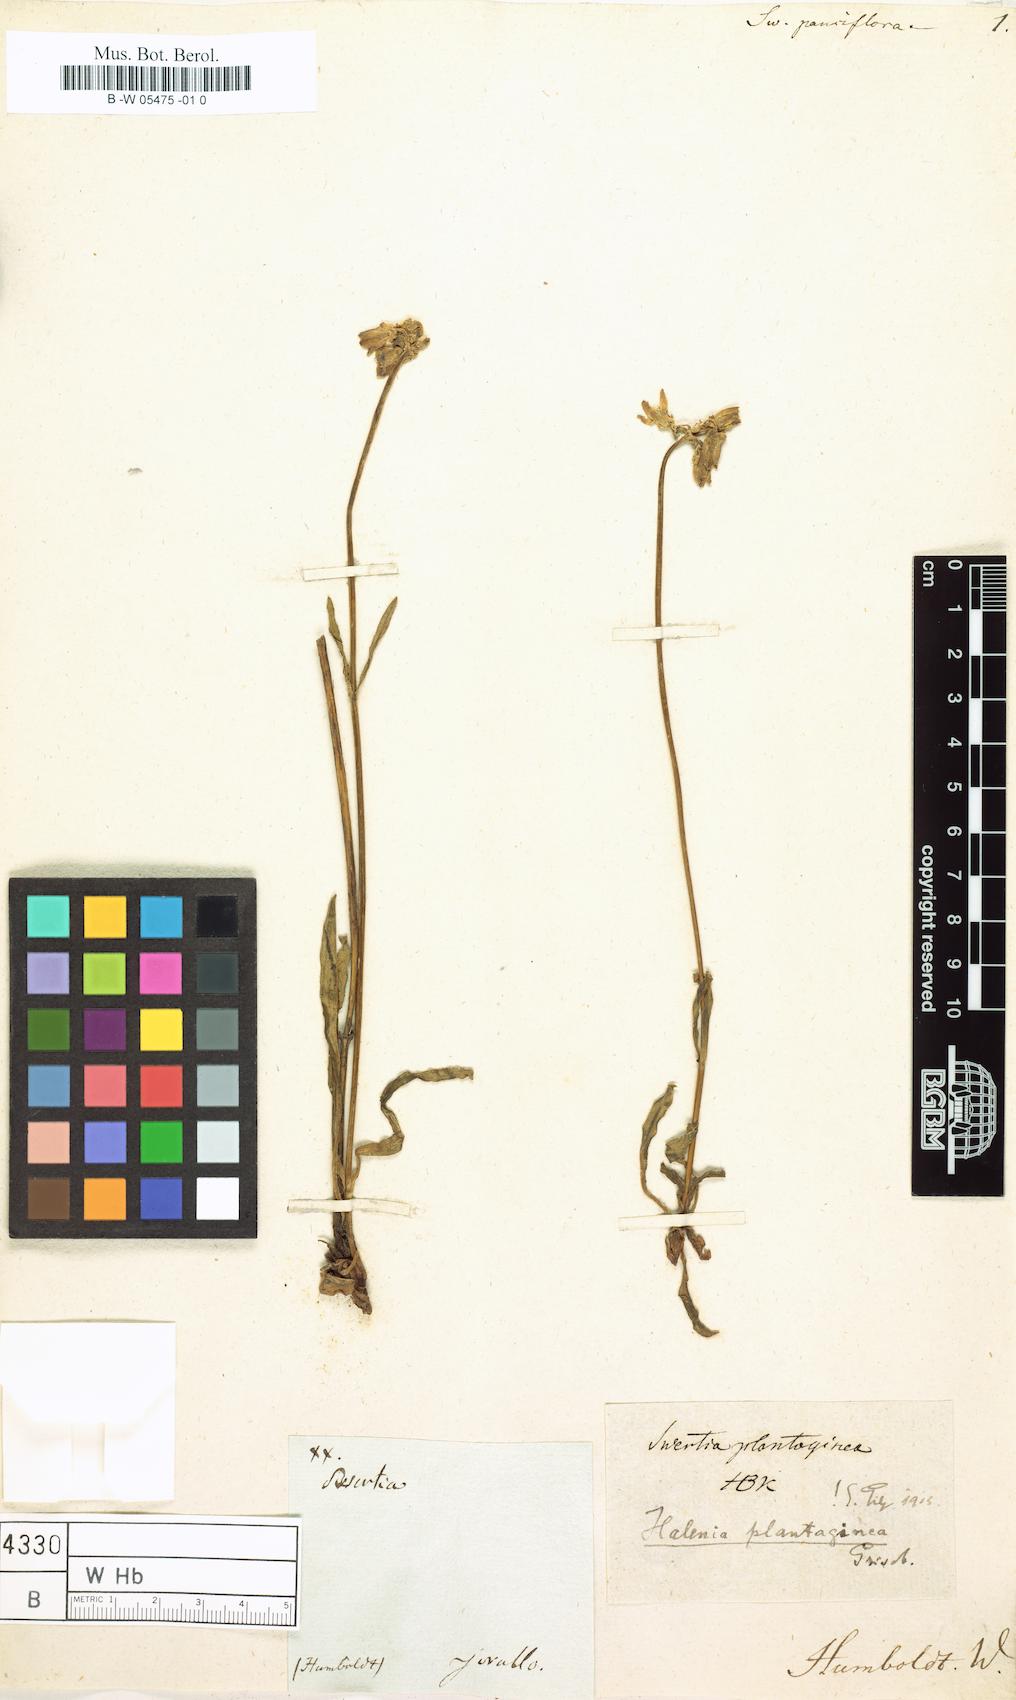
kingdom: Plantae
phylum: Tracheophyta
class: Magnoliopsida
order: Gentianales
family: Gentianaceae
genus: Halenia
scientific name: Halenia plantaginea
